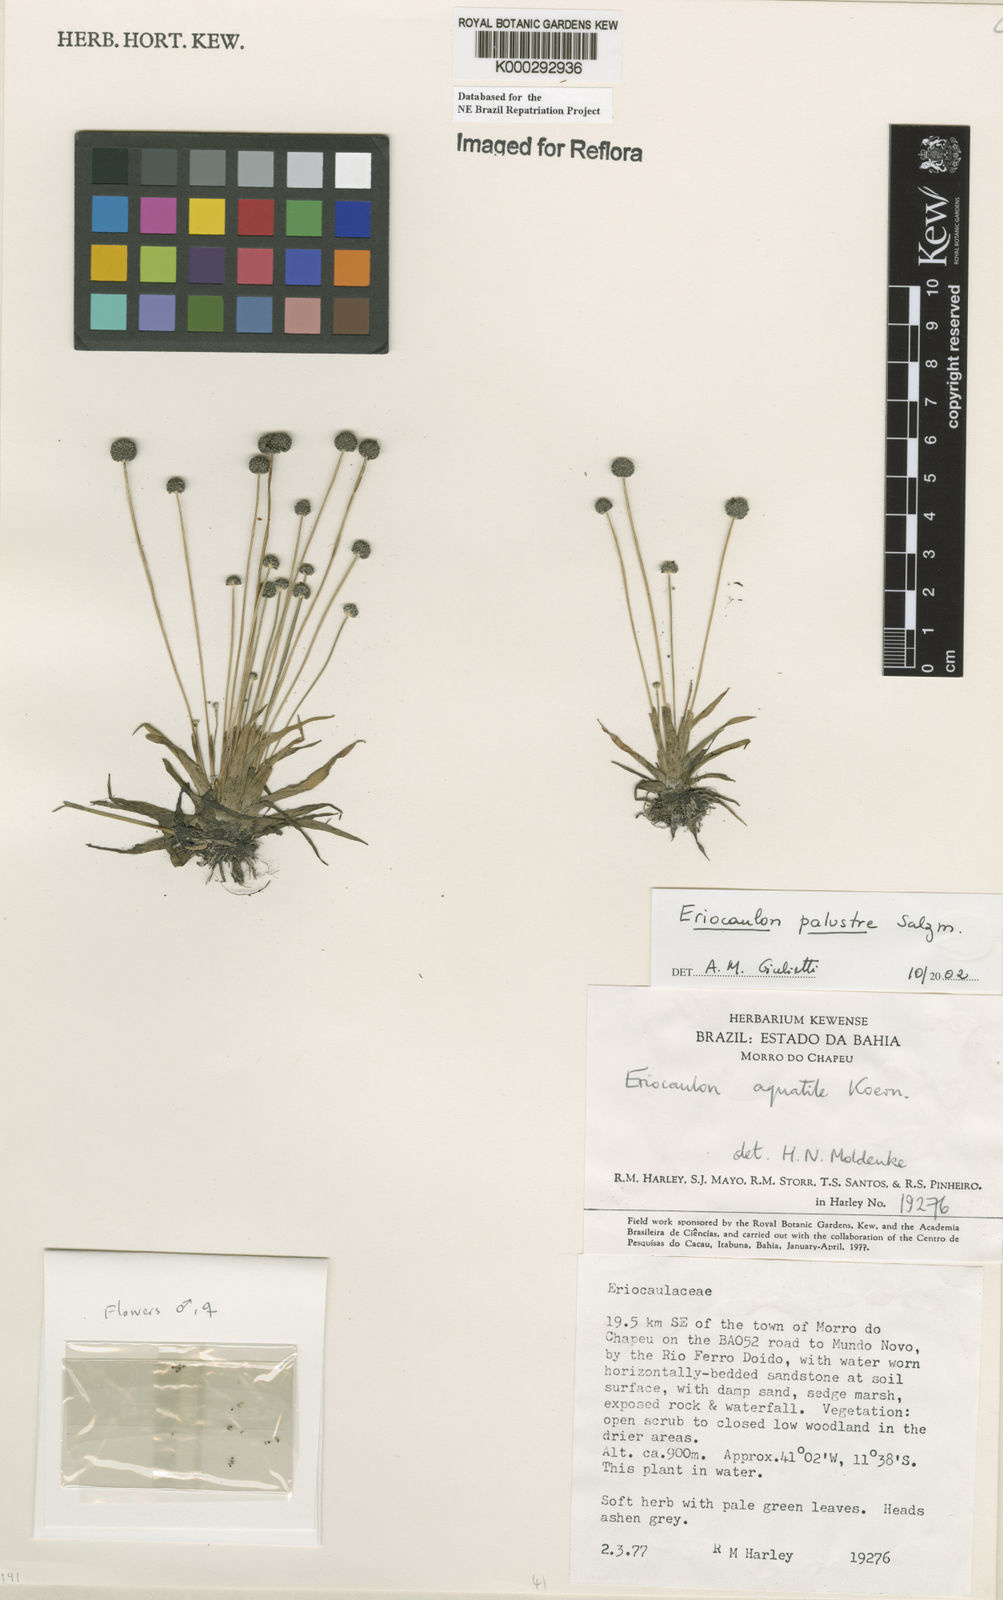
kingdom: Plantae
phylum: Tracheophyta
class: Liliopsida
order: Poales
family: Eriocaulaceae
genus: Eriocaulon
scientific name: Eriocaulon palustre
